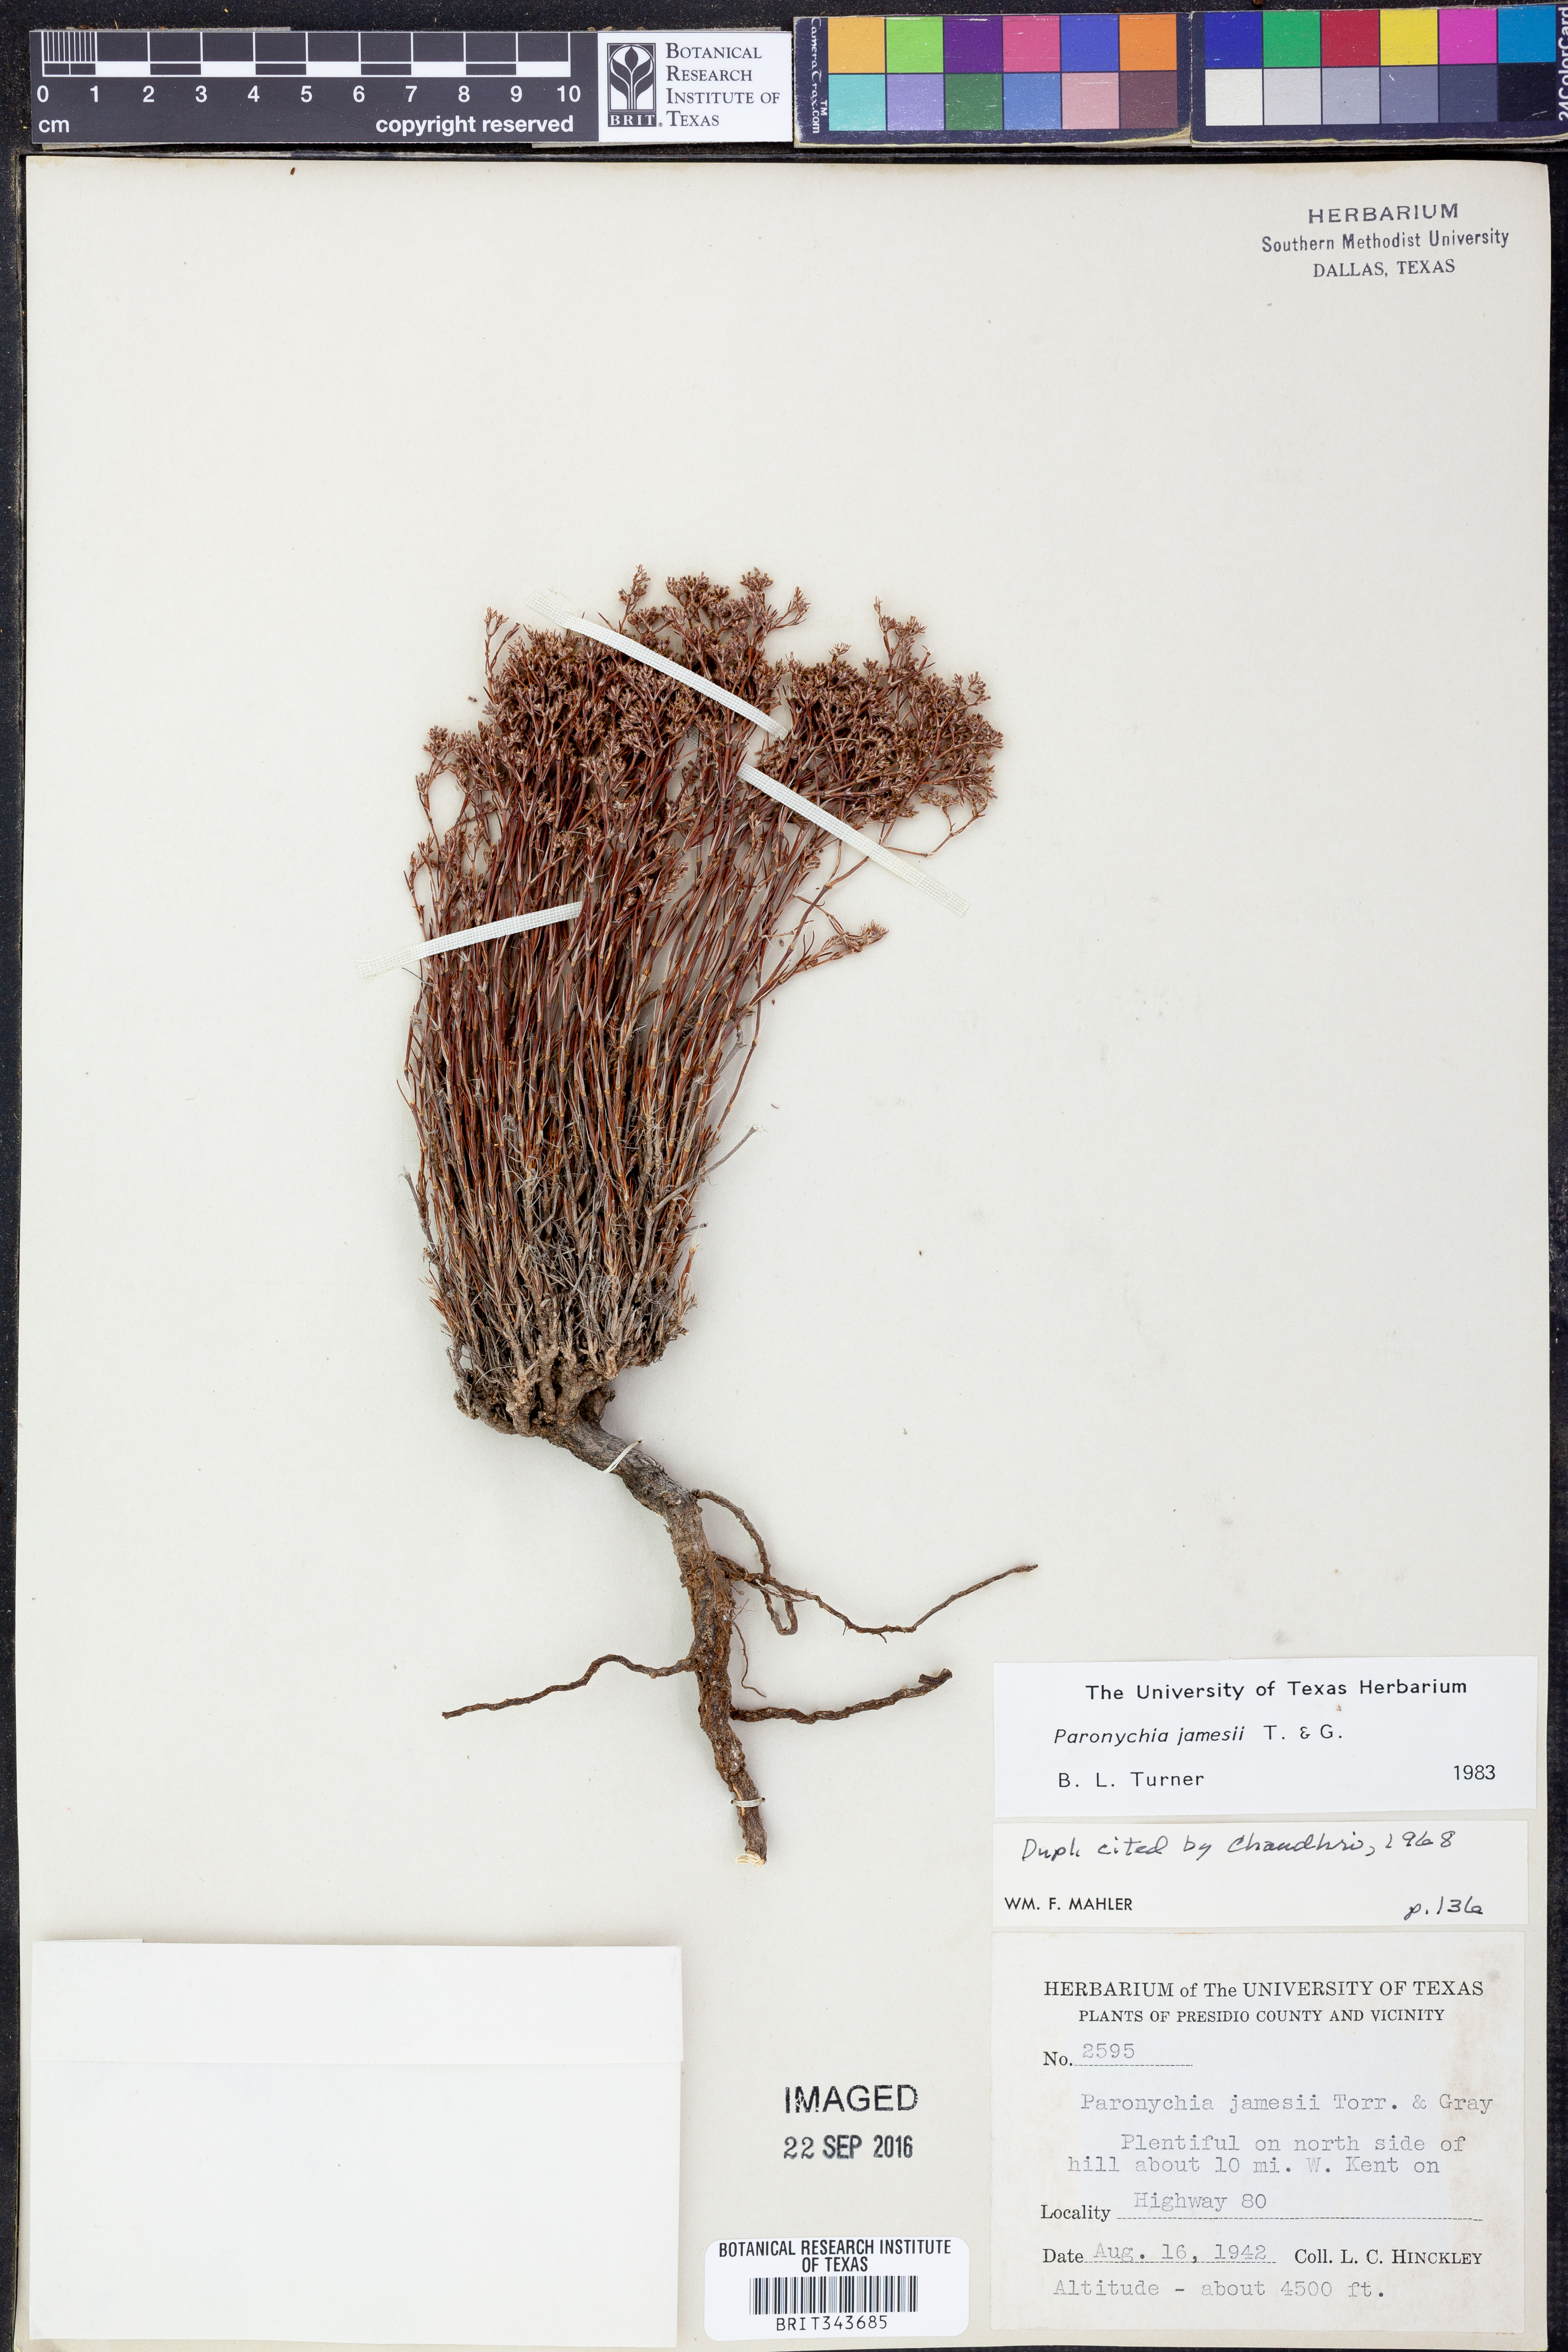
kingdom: Plantae
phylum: Tracheophyta
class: Magnoliopsida
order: Caryophyllales
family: Caryophyllaceae
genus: Paronychia
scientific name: Paronychia jamesii
